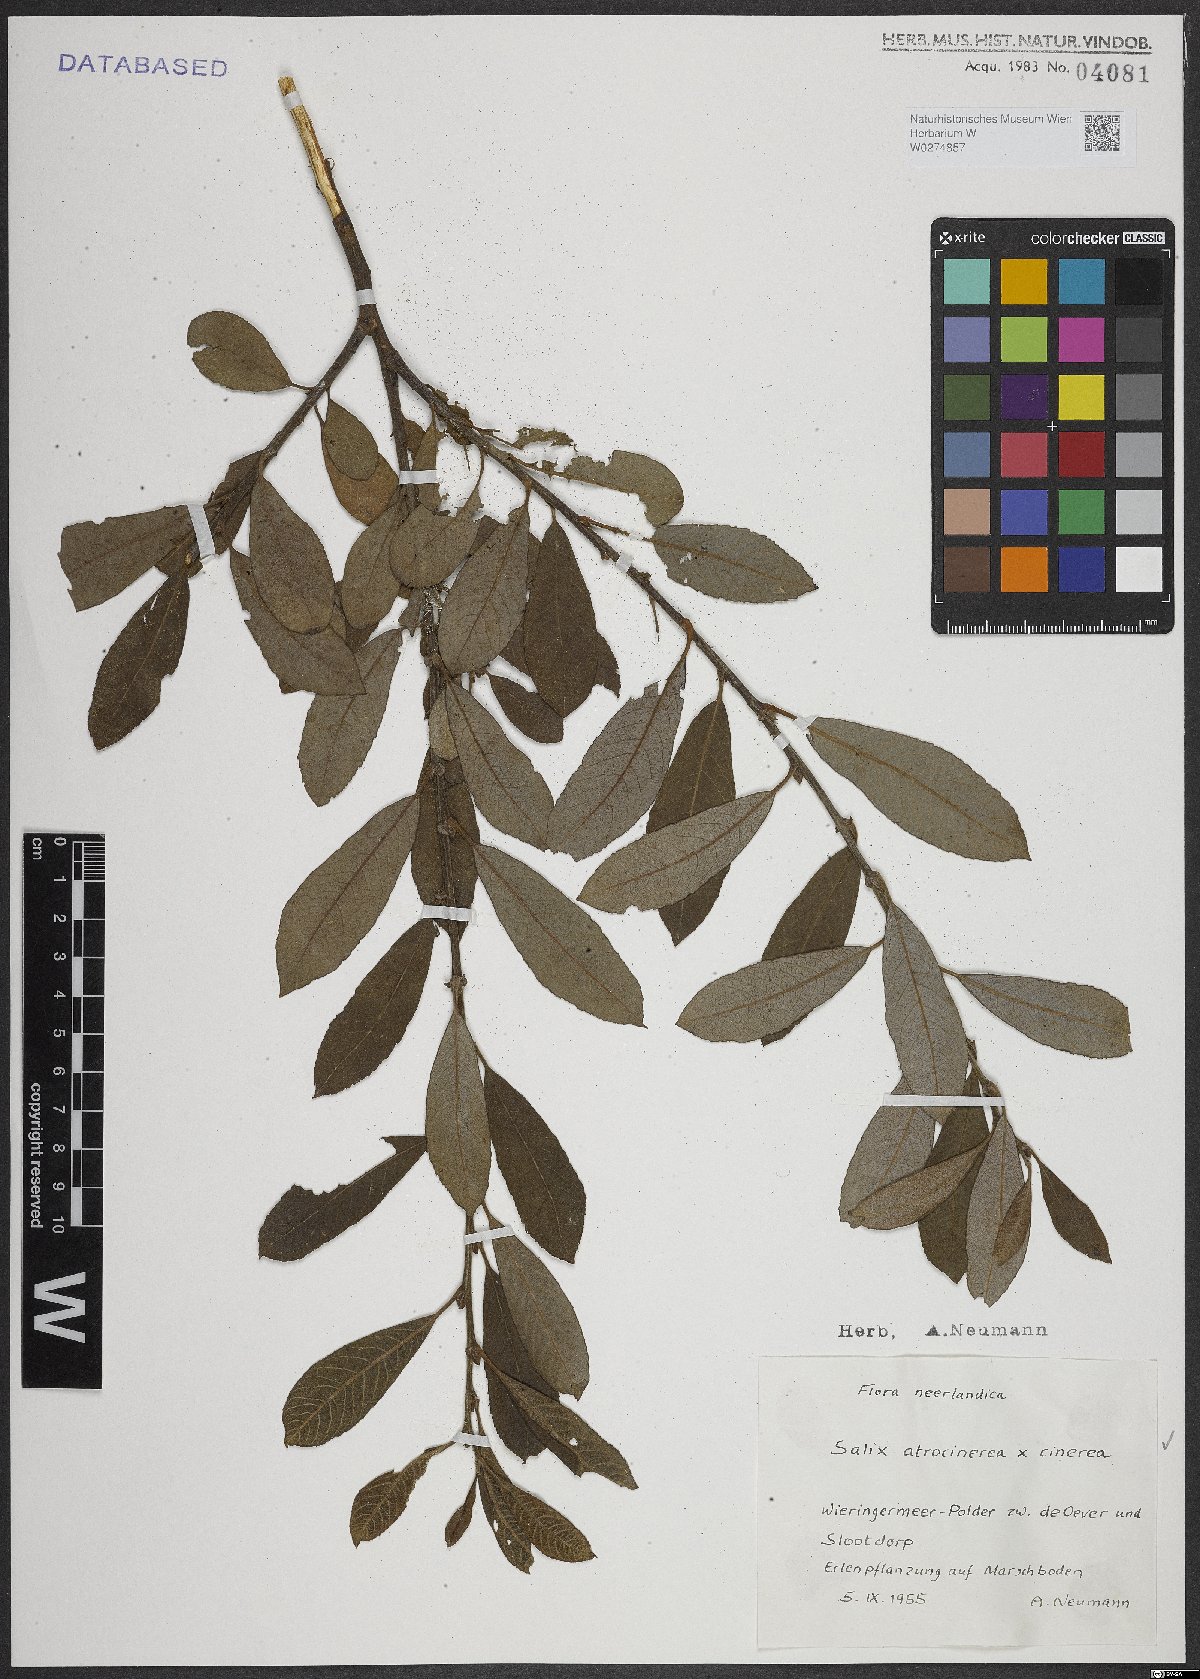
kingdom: Plantae
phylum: Tracheophyta
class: Magnoliopsida
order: Malpighiales
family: Salicaceae
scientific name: Salicaceae
